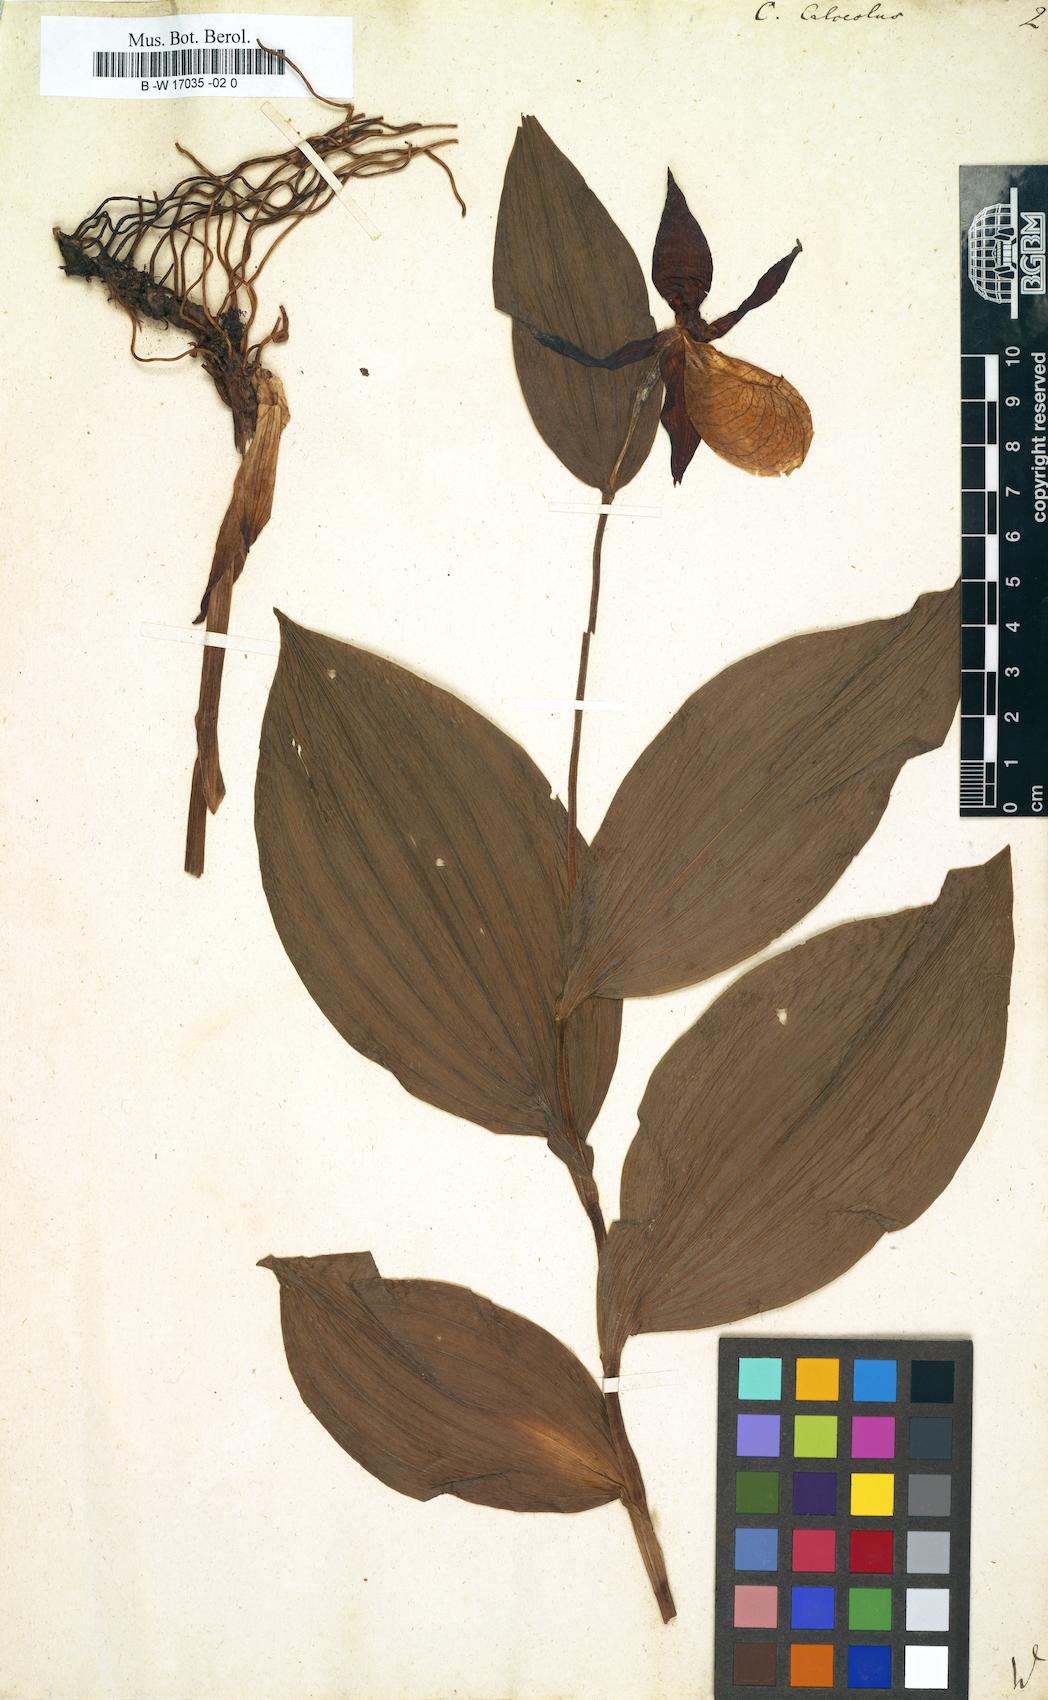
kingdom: Plantae
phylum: Tracheophyta
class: Liliopsida
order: Asparagales
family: Orchidaceae
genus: Cypripedium
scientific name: Cypripedium calceolus
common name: Lady's-slipper
